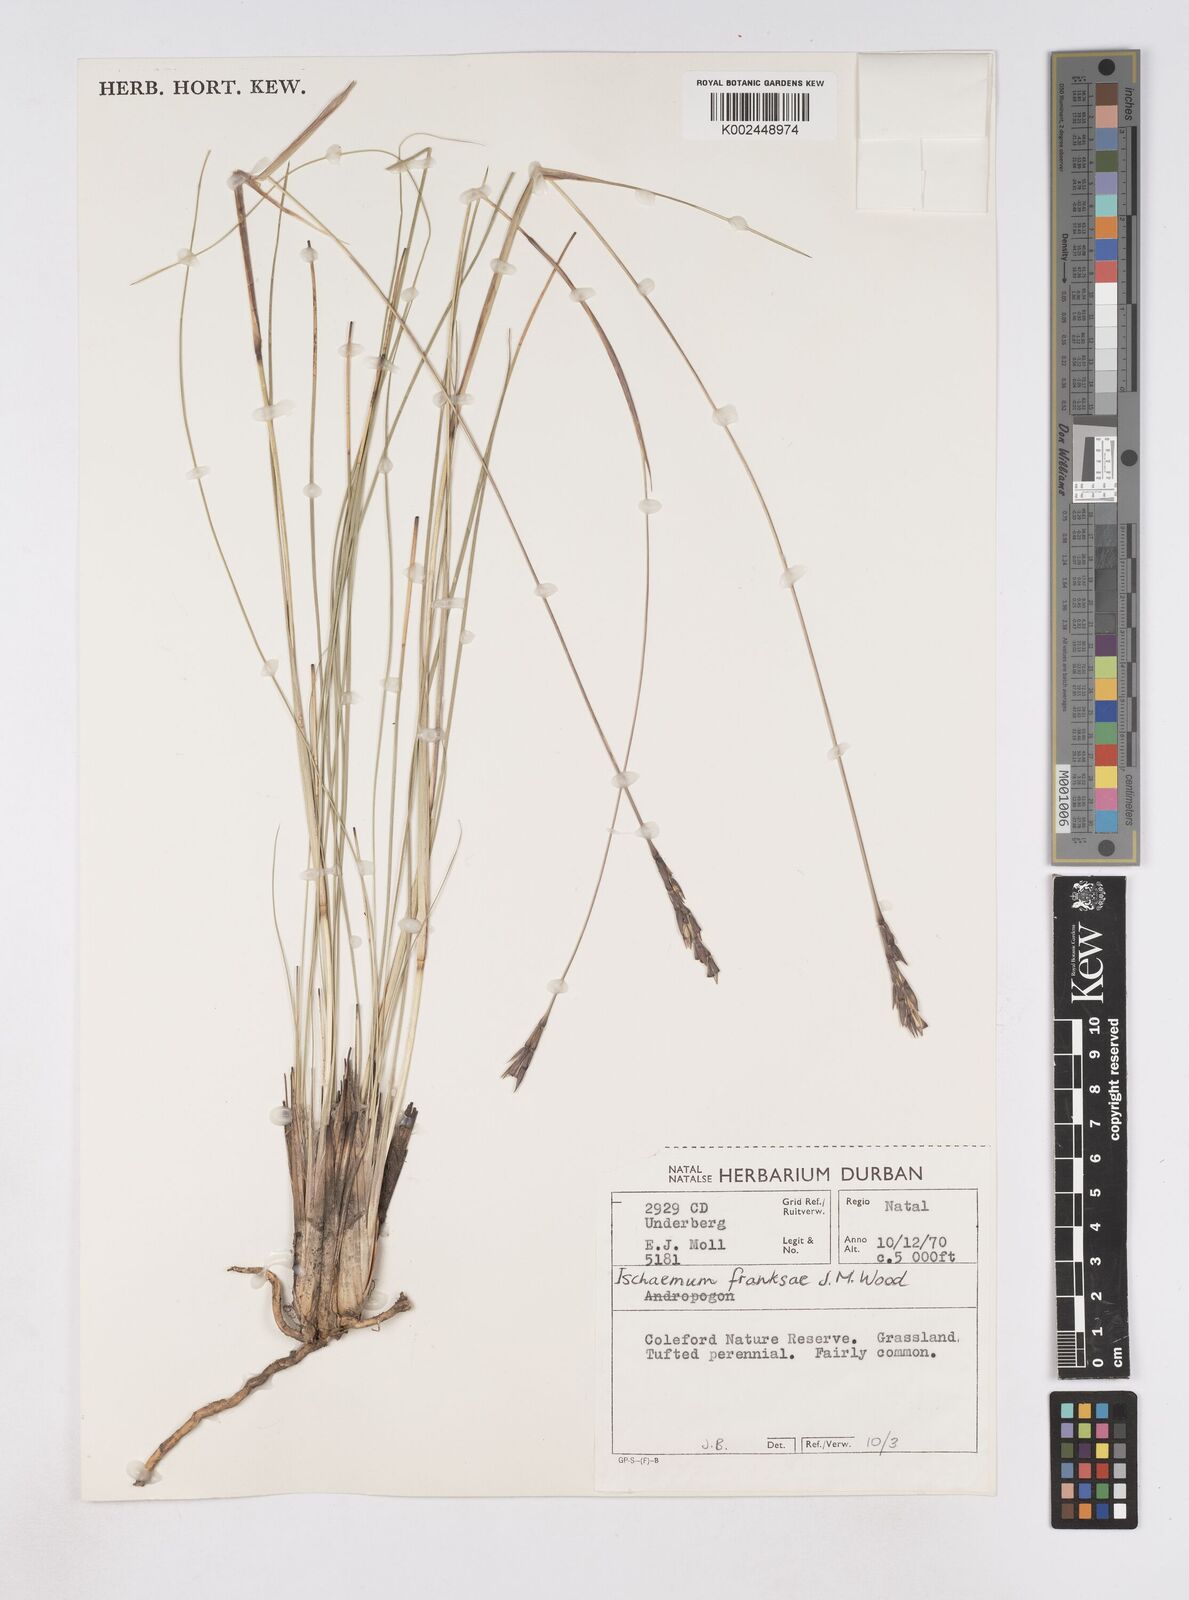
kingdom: Plantae
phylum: Tracheophyta
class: Liliopsida
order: Poales
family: Poaceae
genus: Phacelurus
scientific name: Phacelurus franksiae
